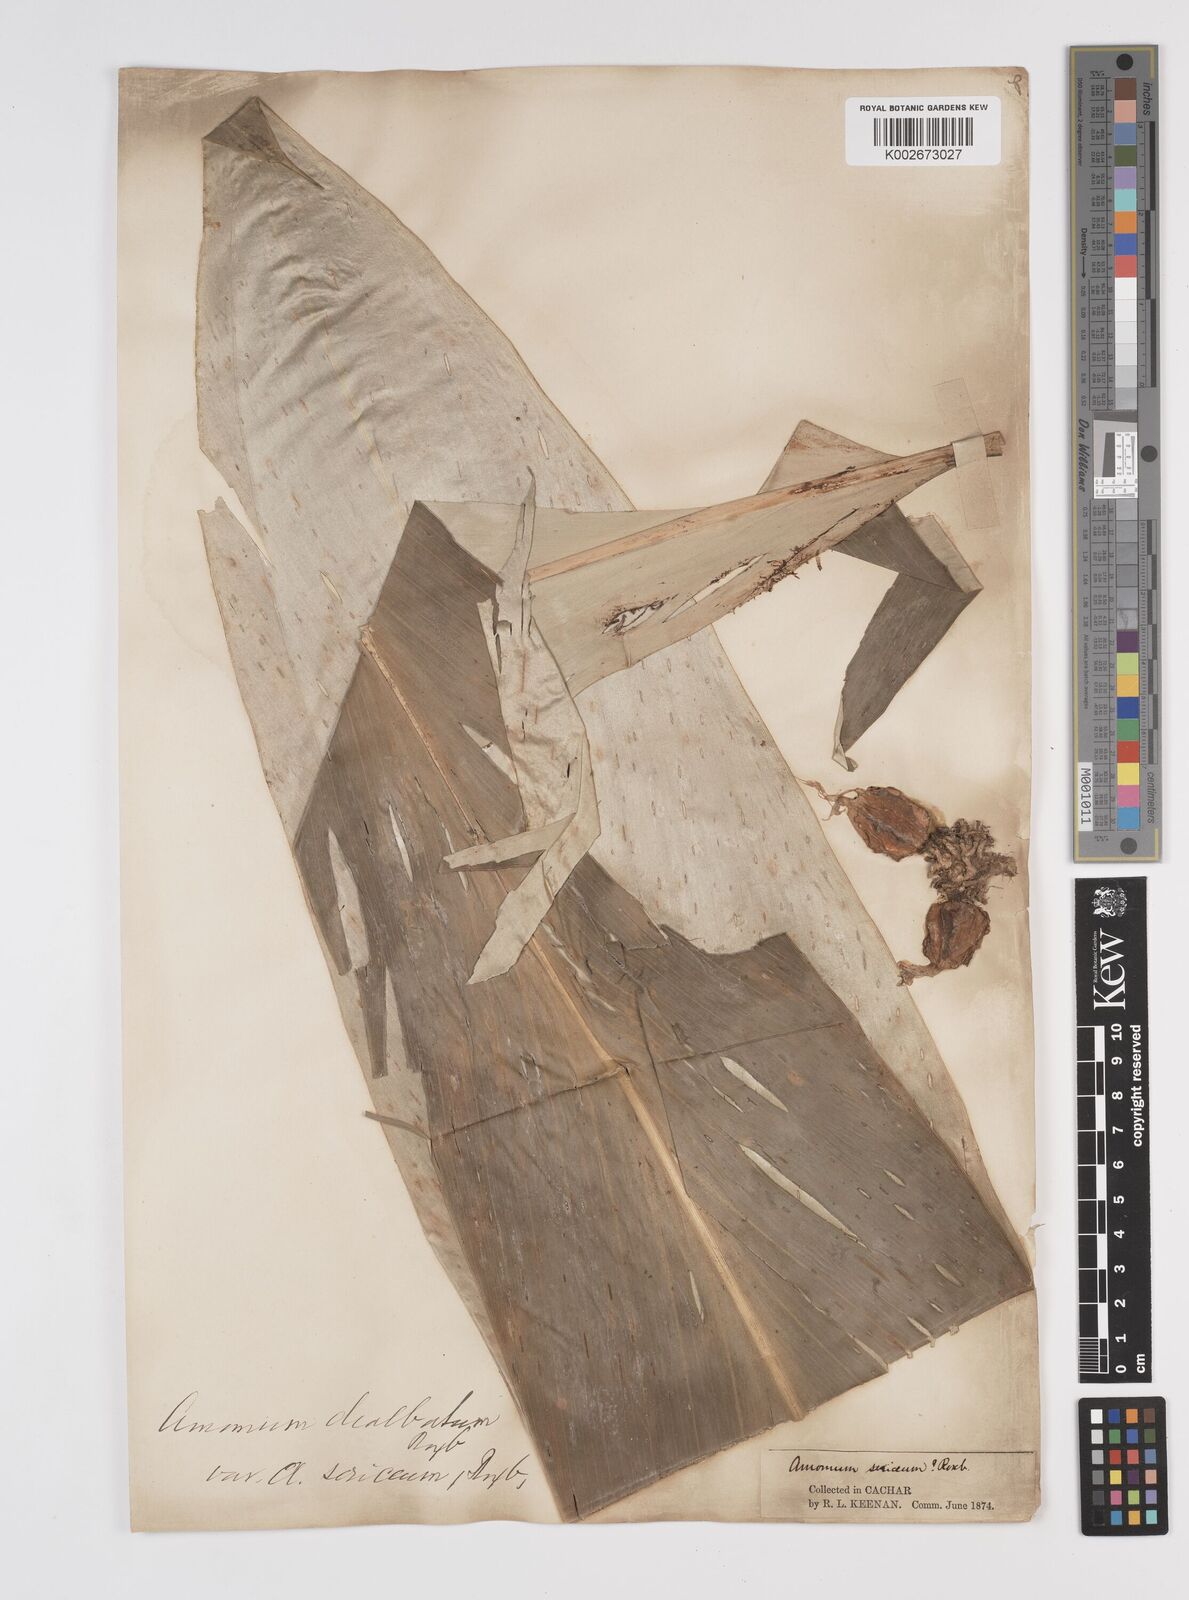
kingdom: Plantae
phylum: Tracheophyta
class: Liliopsida
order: Zingiberales
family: Zingiberaceae
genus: Amomum
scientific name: Amomum dealbatum
